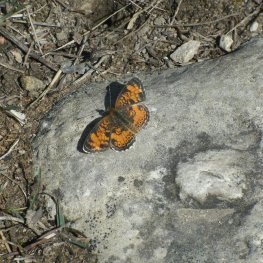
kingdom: Animalia
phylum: Arthropoda
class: Insecta
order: Lepidoptera
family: Nymphalidae
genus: Phyciodes
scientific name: Phyciodes tharos
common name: Pearl Crescent
